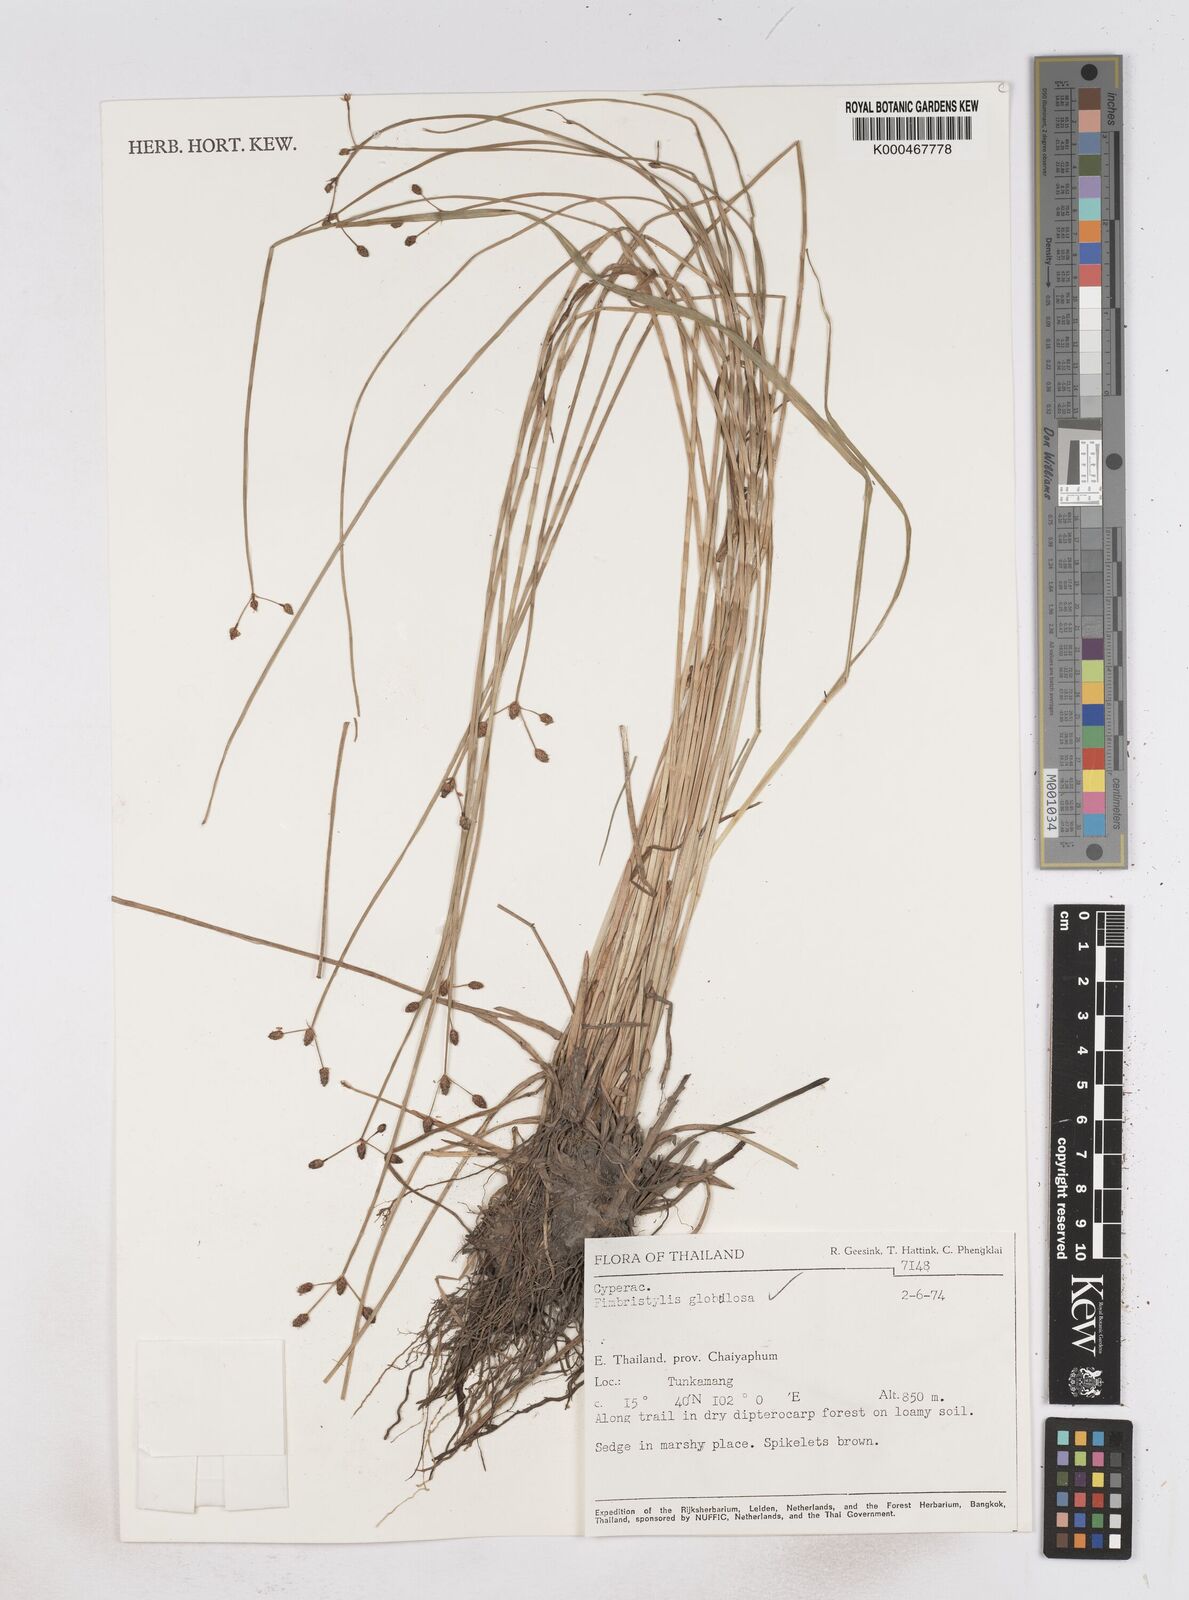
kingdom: Plantae
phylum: Tracheophyta
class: Liliopsida
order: Poales
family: Cyperaceae
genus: Fimbristylis
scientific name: Fimbristylis umbellaris
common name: Globular fimbristylis
